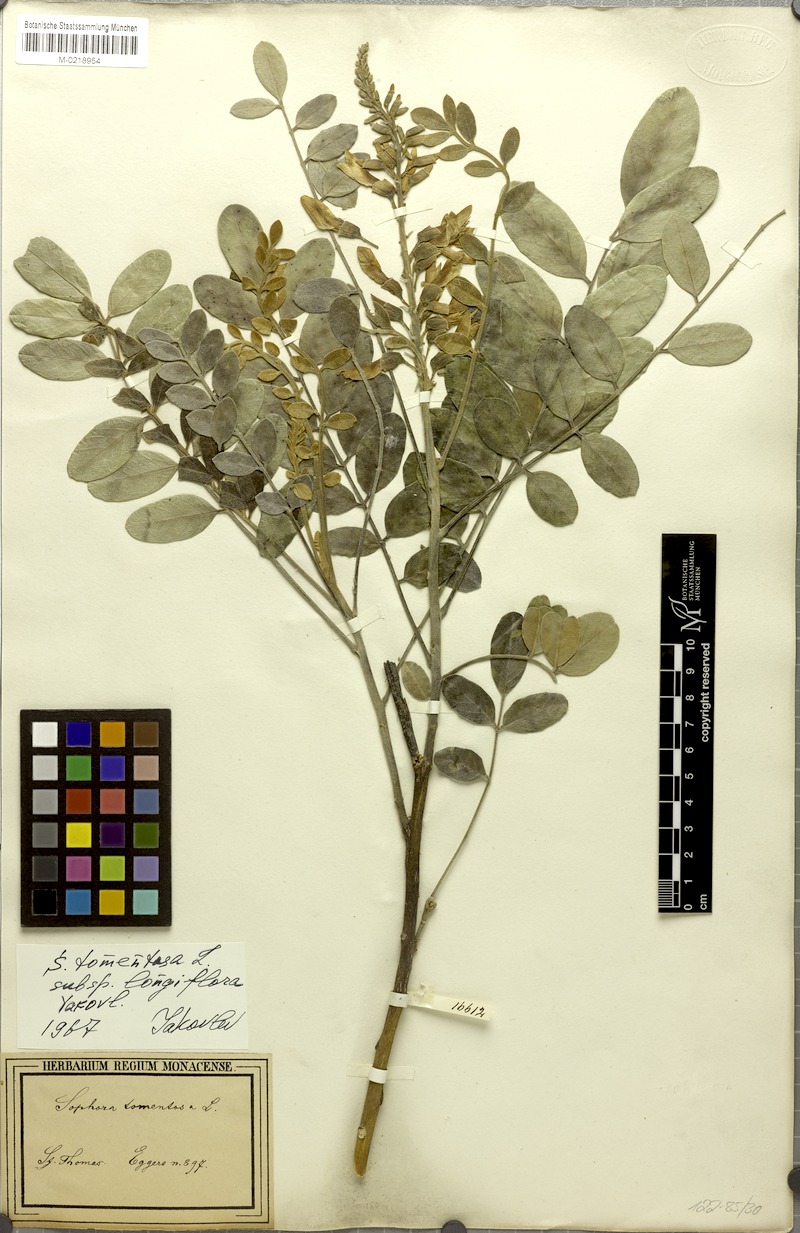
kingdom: Plantae
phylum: Tracheophyta
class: Magnoliopsida
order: Fabales
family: Fabaceae
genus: Sophora
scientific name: Sophora tomentosa
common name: Yellow necklacepod
